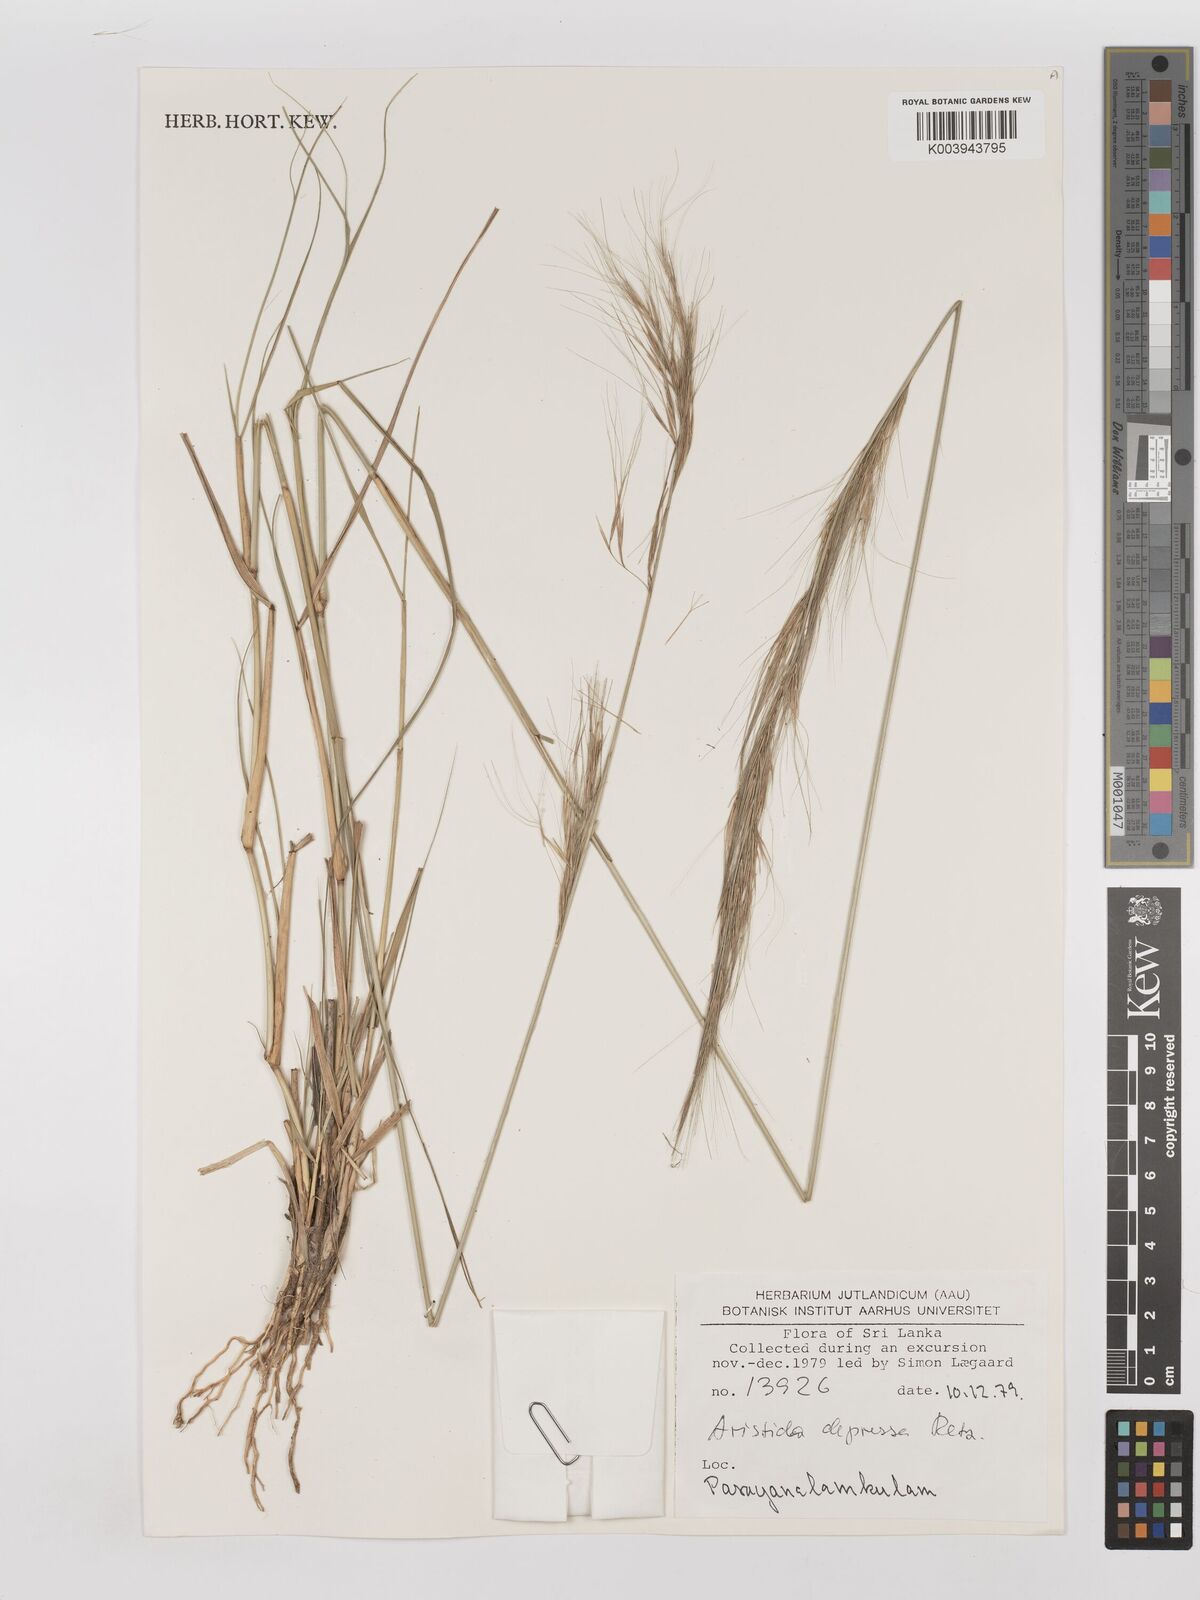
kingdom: Plantae
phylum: Tracheophyta
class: Liliopsida
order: Poales
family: Poaceae
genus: Aristida
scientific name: Aristida adscensionis
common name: Sixweeks threeawn
